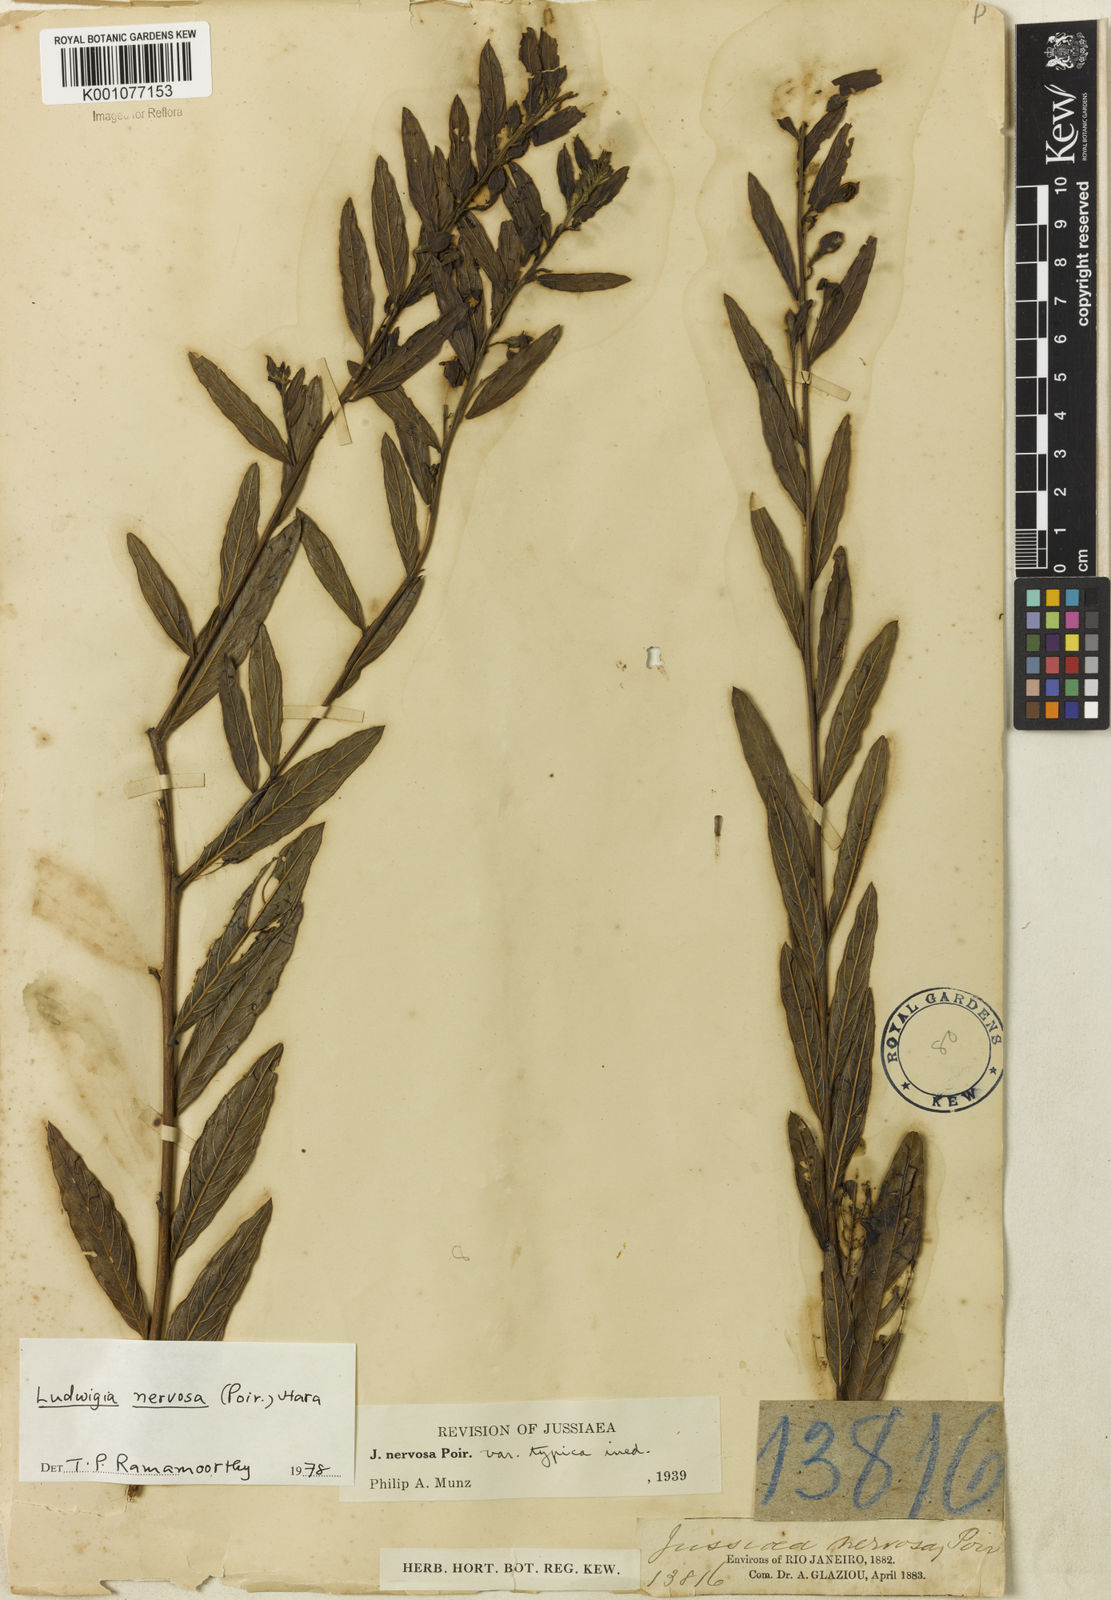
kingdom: Plantae
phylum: Tracheophyta
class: Magnoliopsida
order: Myrtales
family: Onagraceae
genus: Ludwigia
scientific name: Ludwigia nervosa
